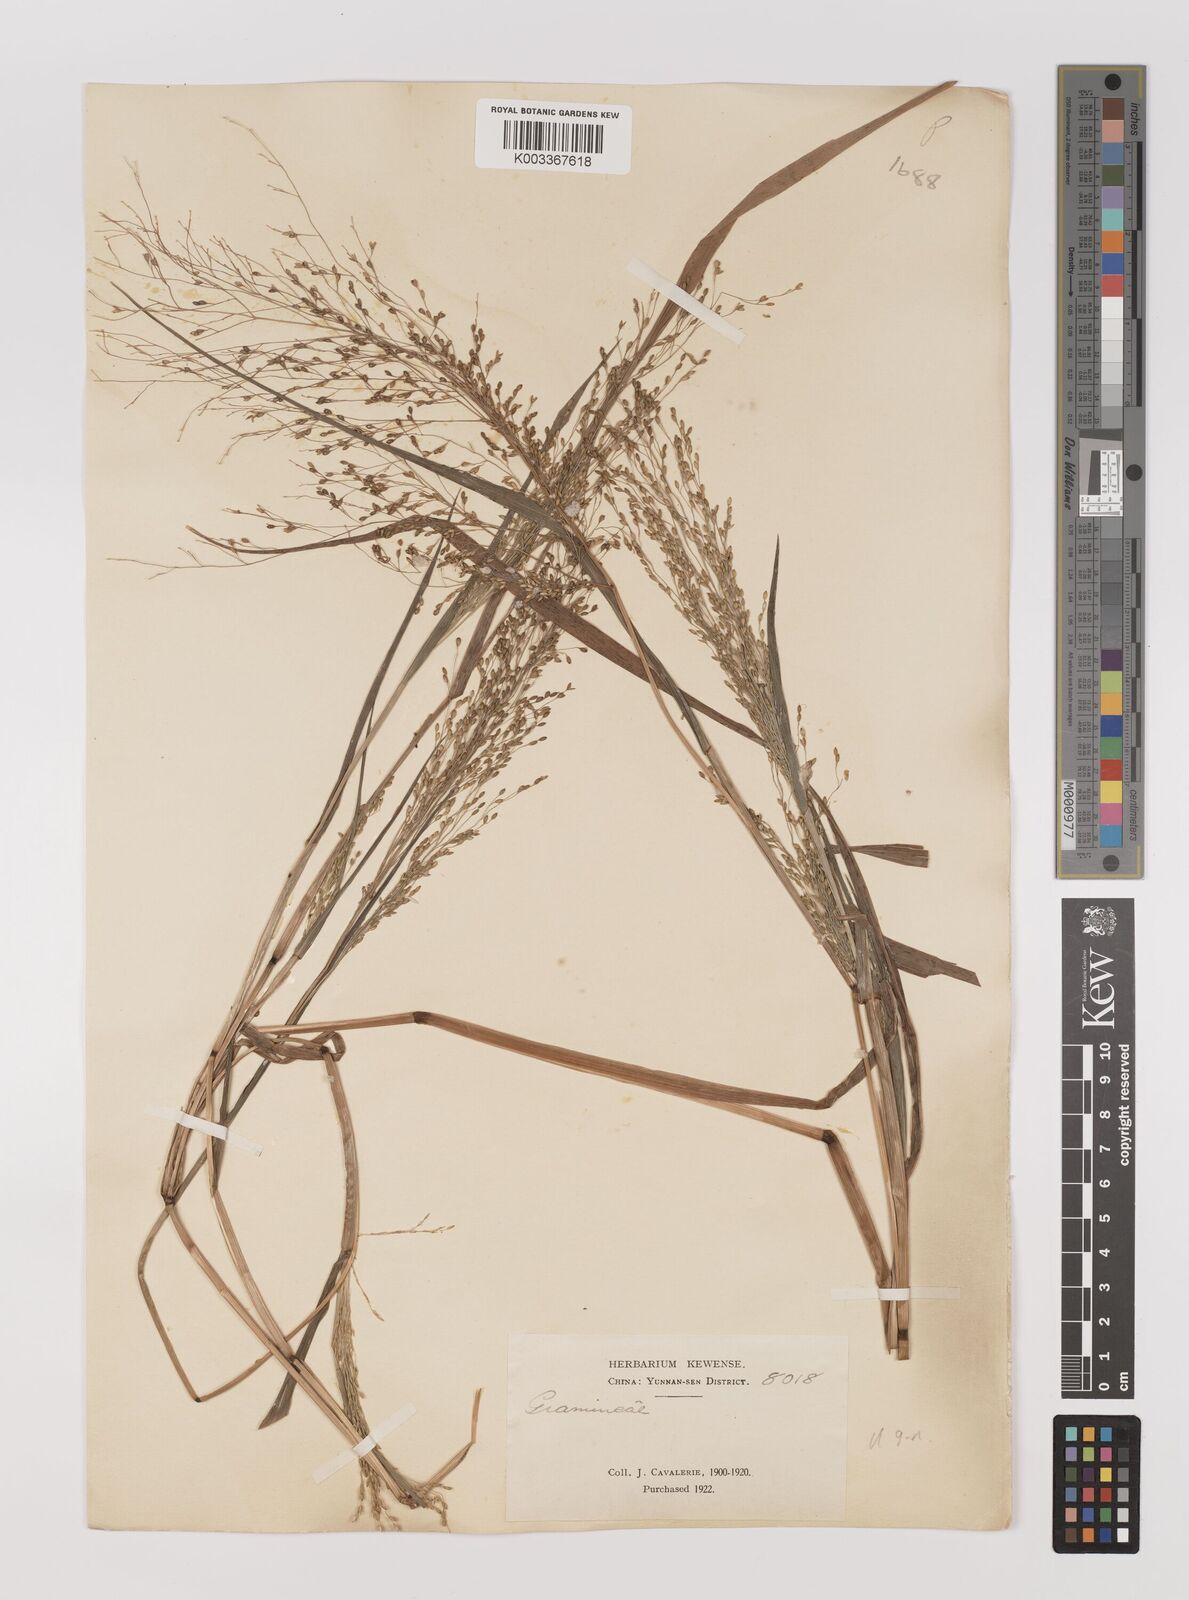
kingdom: Plantae
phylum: Tracheophyta
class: Liliopsida
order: Poales
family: Poaceae
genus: Panicum
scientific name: Panicum sumatrense
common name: Little millet
